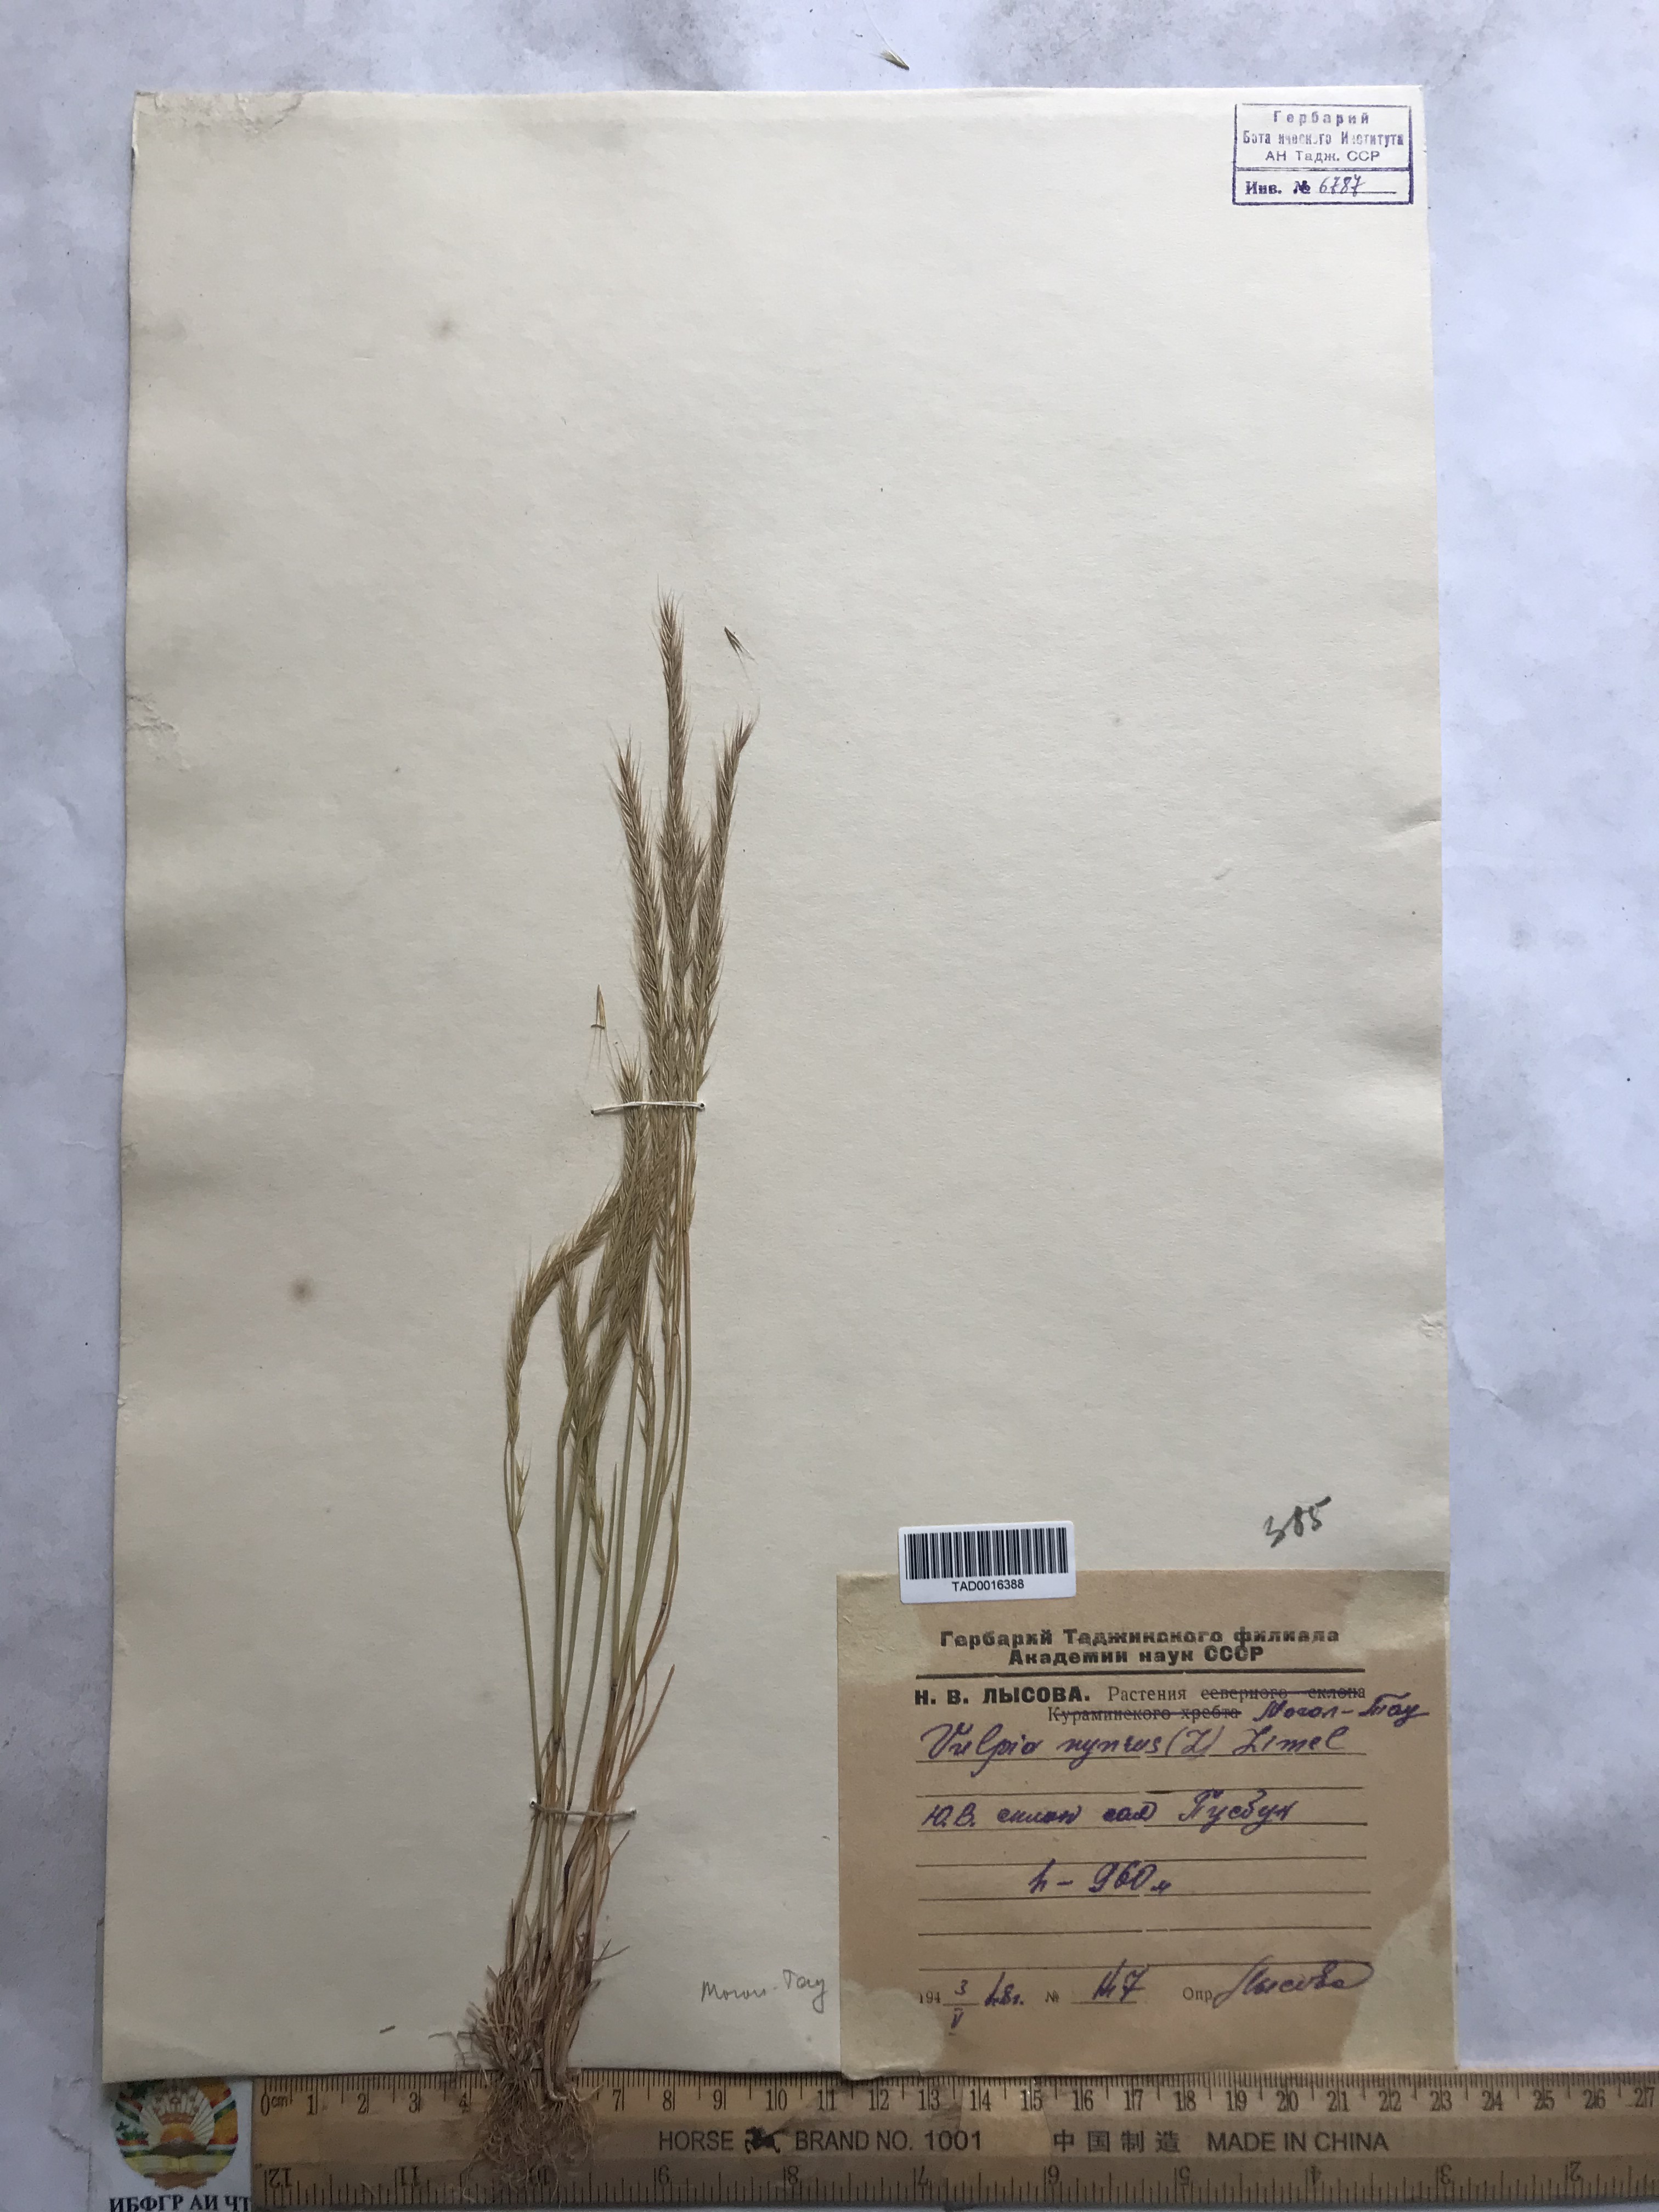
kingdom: Plantae
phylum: Tracheophyta
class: Liliopsida
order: Poales
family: Poaceae
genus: Festuca
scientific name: Festuca myuros
